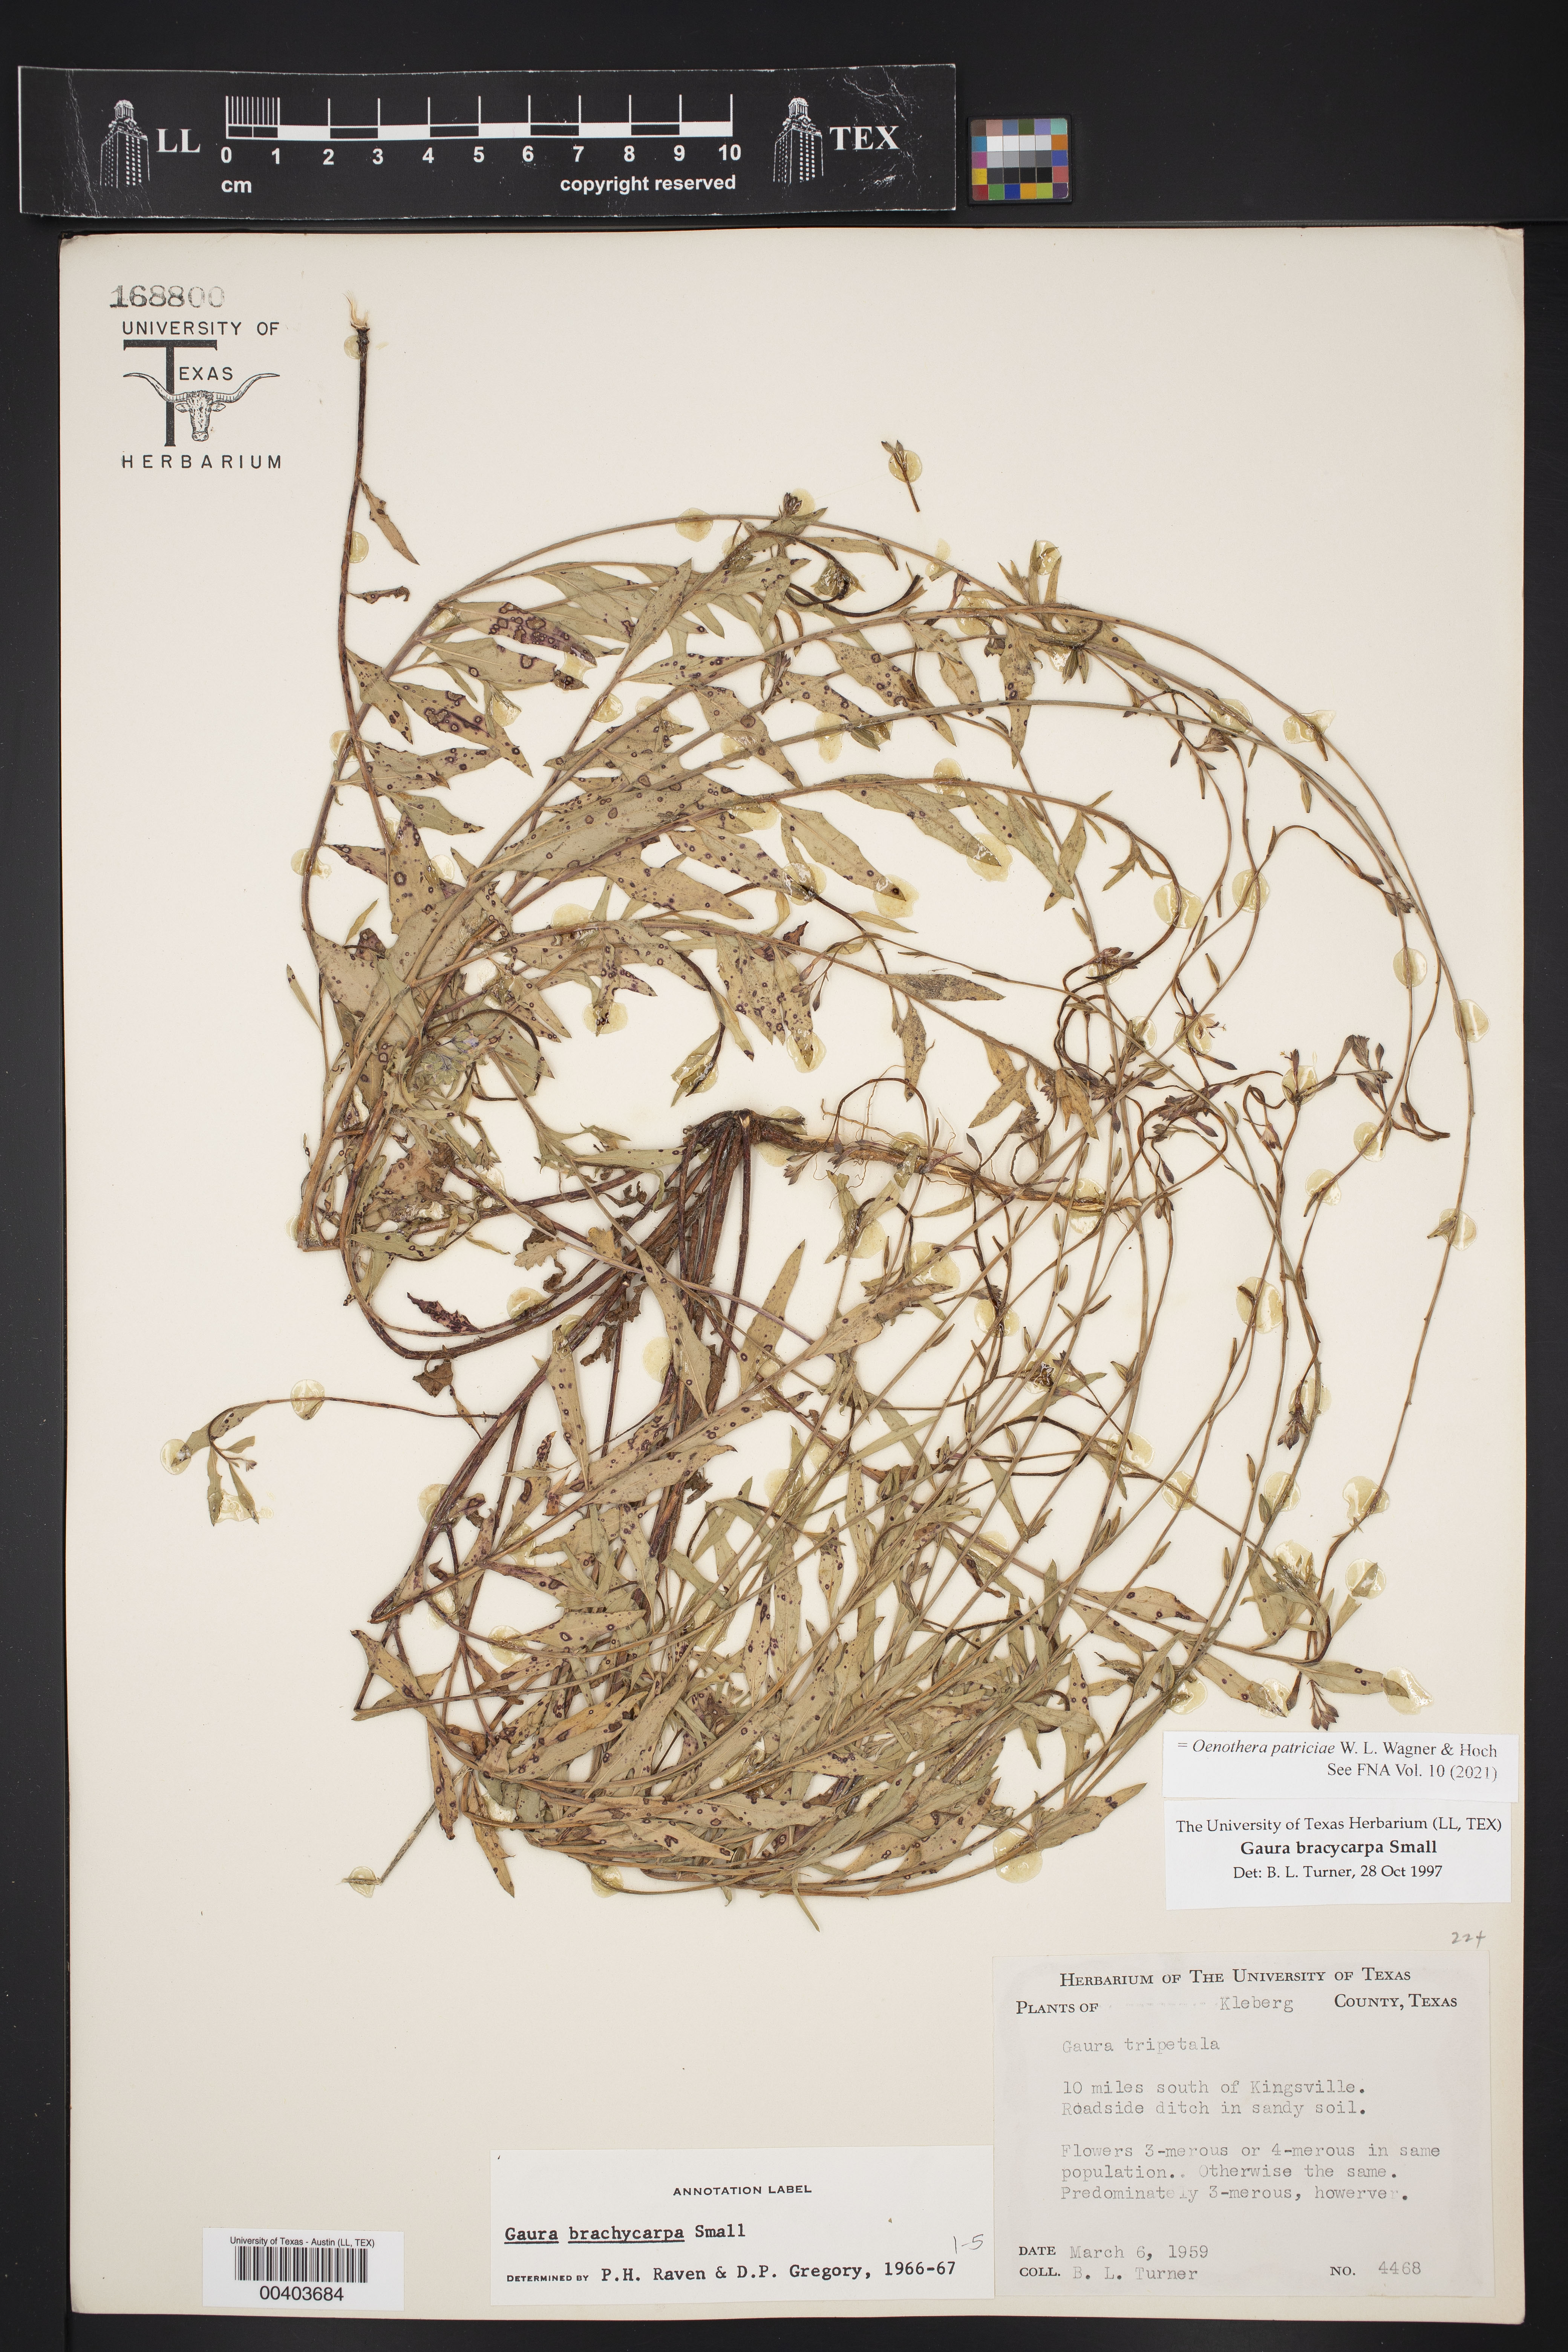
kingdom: Plantae
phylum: Tracheophyta
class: Magnoliopsida
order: Myrtales
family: Onagraceae
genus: Oenothera
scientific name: Oenothera patriciae
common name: Plains beeblossom
